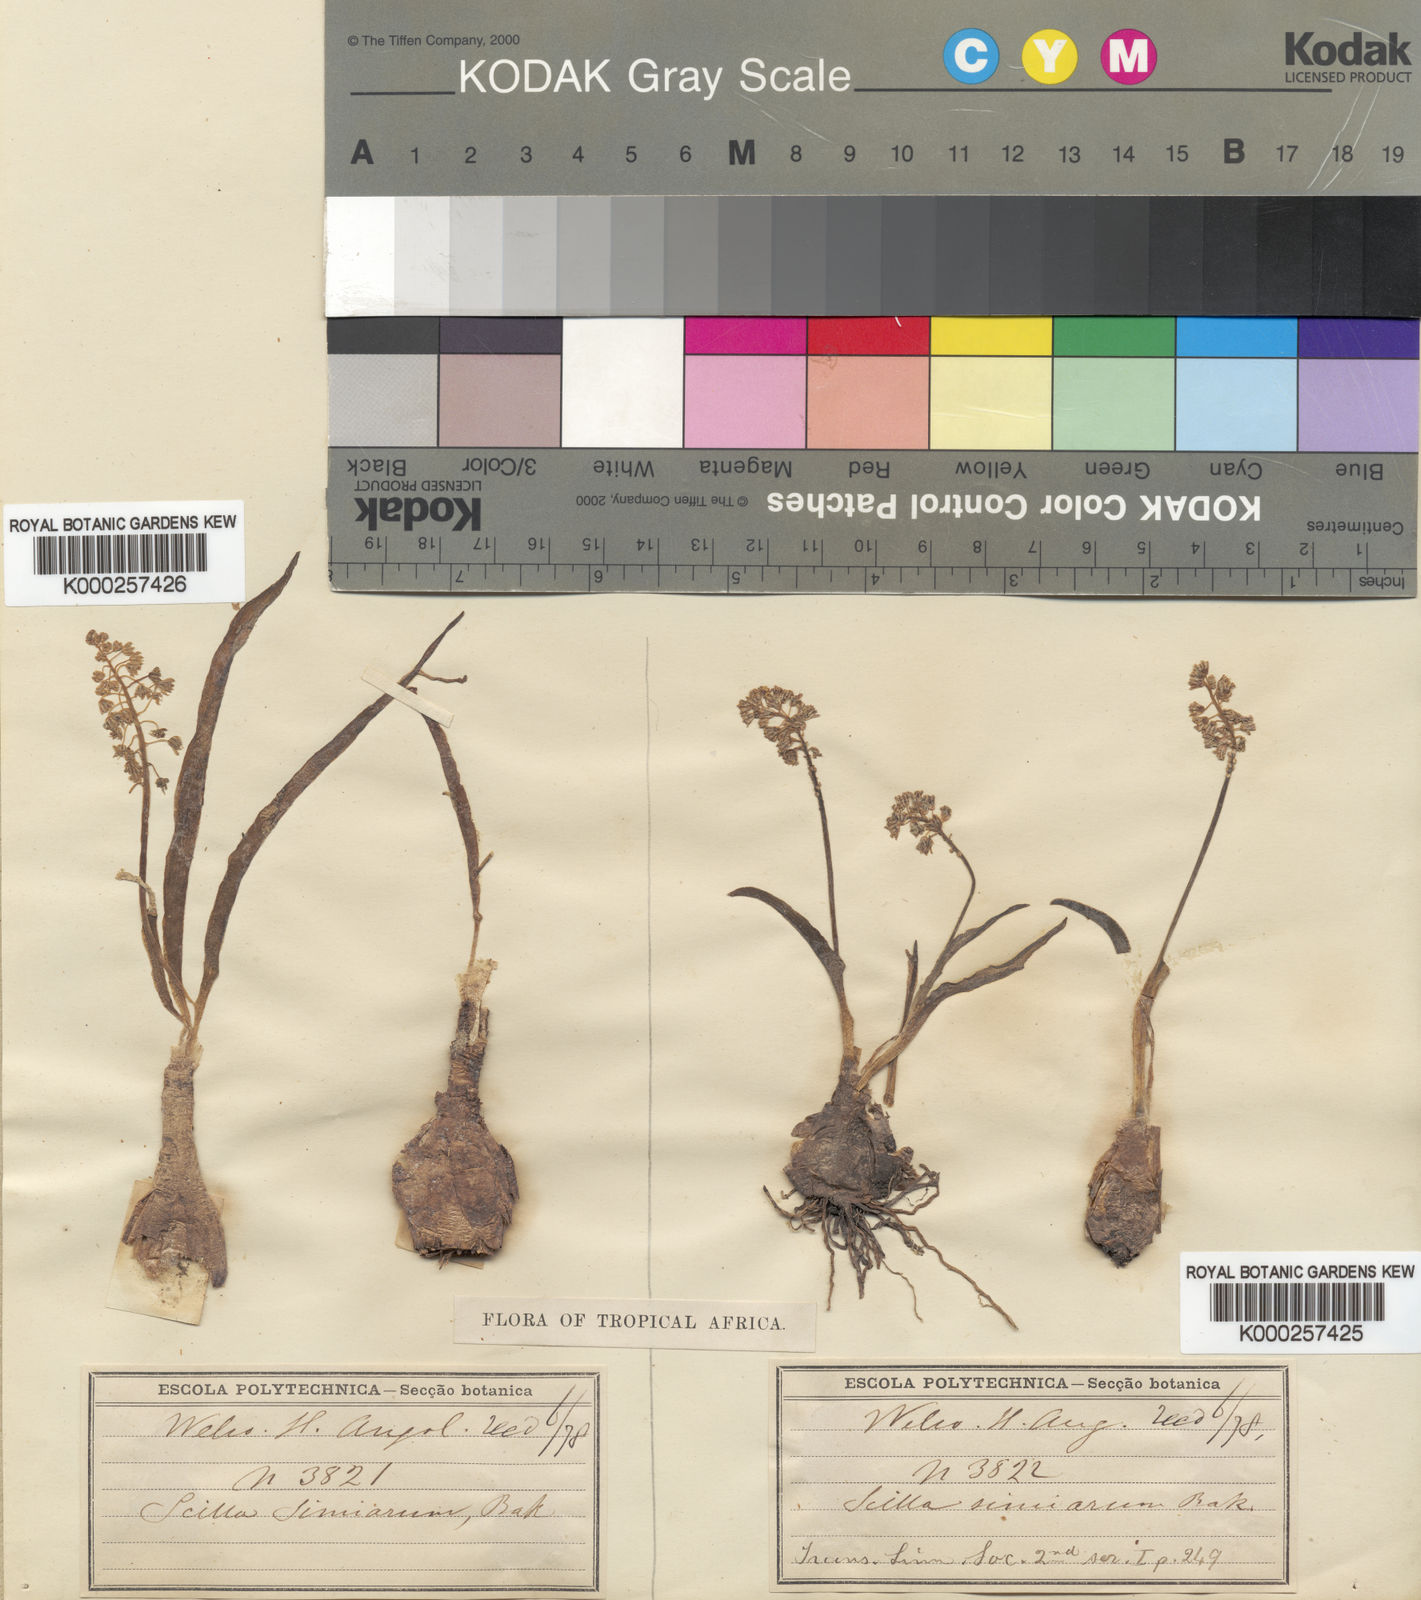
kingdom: Plantae
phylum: Tracheophyta
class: Liliopsida
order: Asparagales
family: Asparagaceae
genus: Scilla
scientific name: Scilla simiarum
